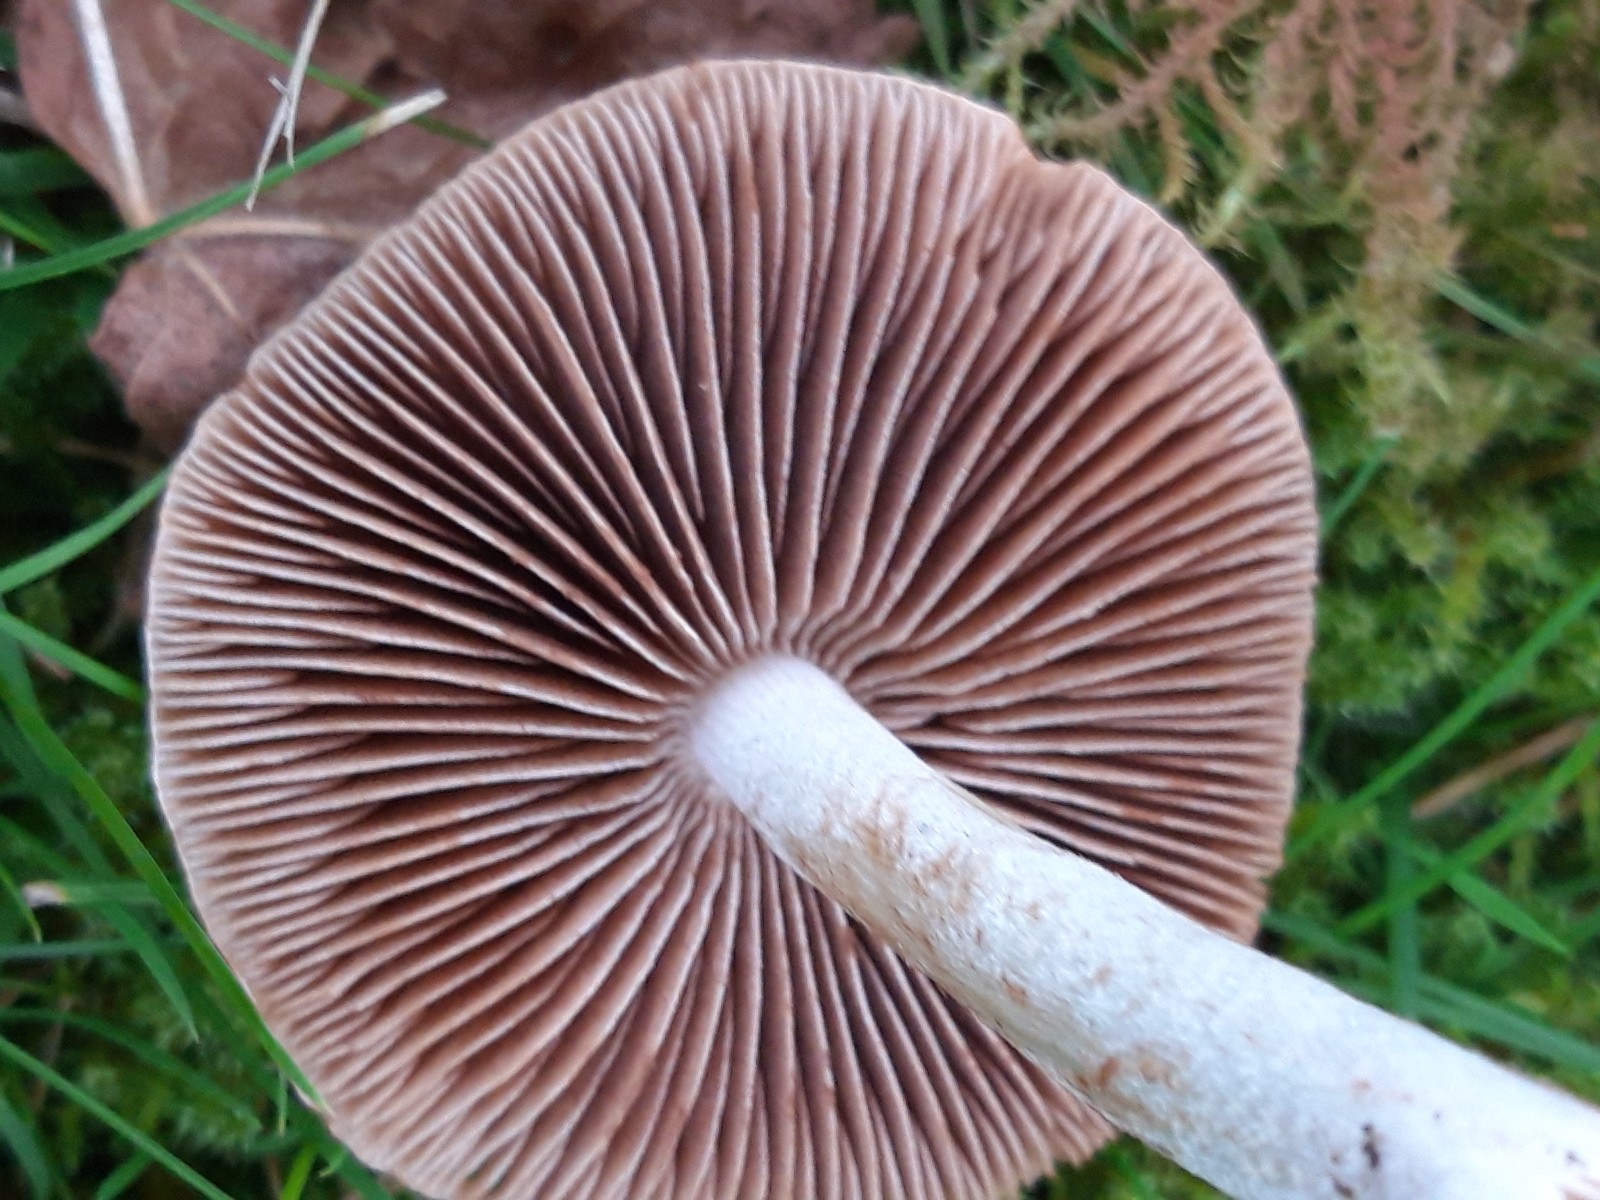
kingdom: Fungi
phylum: Basidiomycota
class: Agaricomycetes
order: Agaricales
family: Hymenogastraceae
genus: Hebeloma
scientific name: Hebeloma
